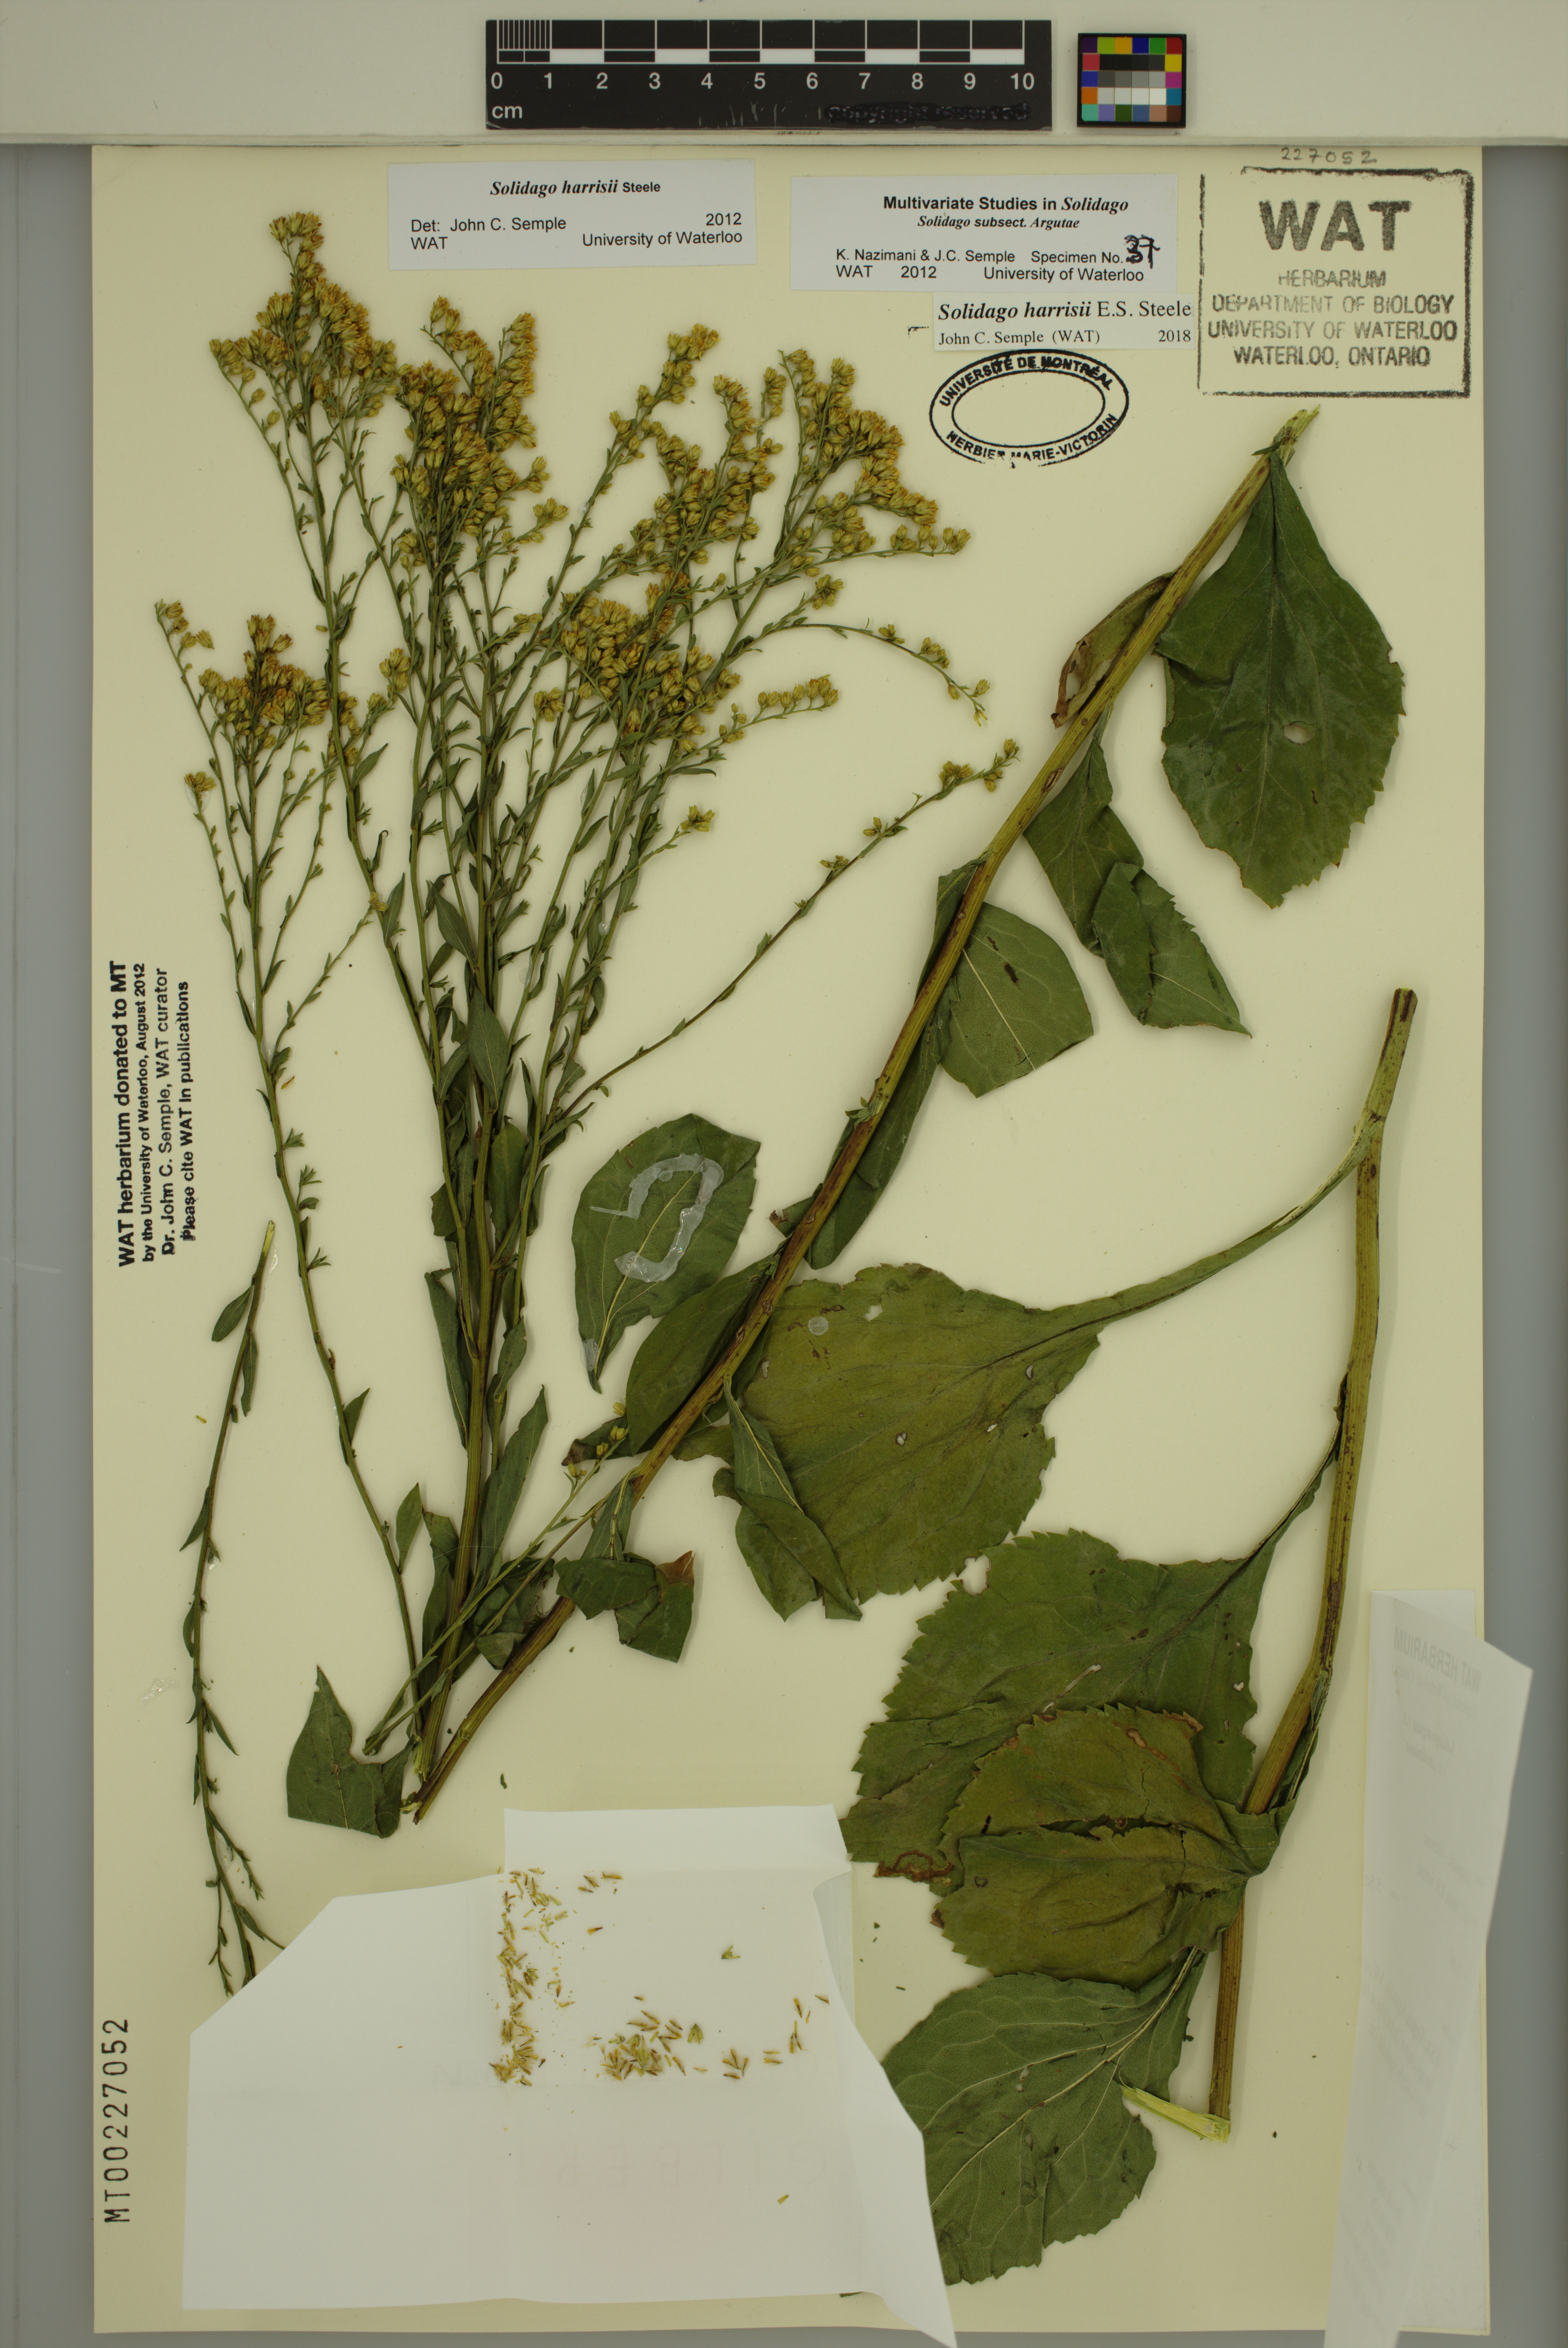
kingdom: Plantae
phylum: Tracheophyta
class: Magnoliopsida
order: Asterales
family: Asteraceae
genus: Solidago
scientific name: Solidago harrisii
